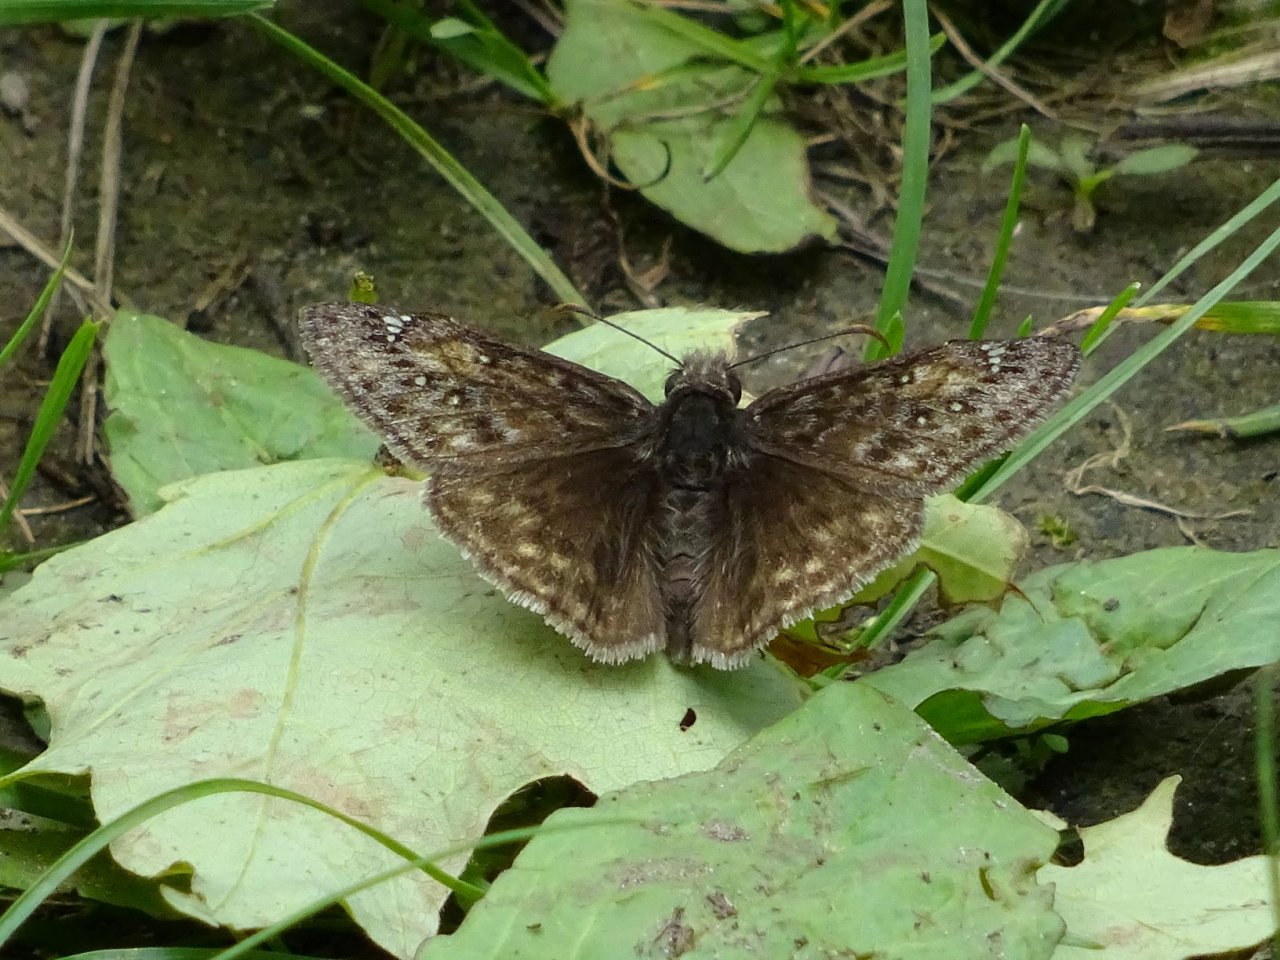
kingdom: Animalia
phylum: Arthropoda
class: Insecta
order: Lepidoptera
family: Hesperiidae
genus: Gesta
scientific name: Gesta
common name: Juvenal's Duskywing
